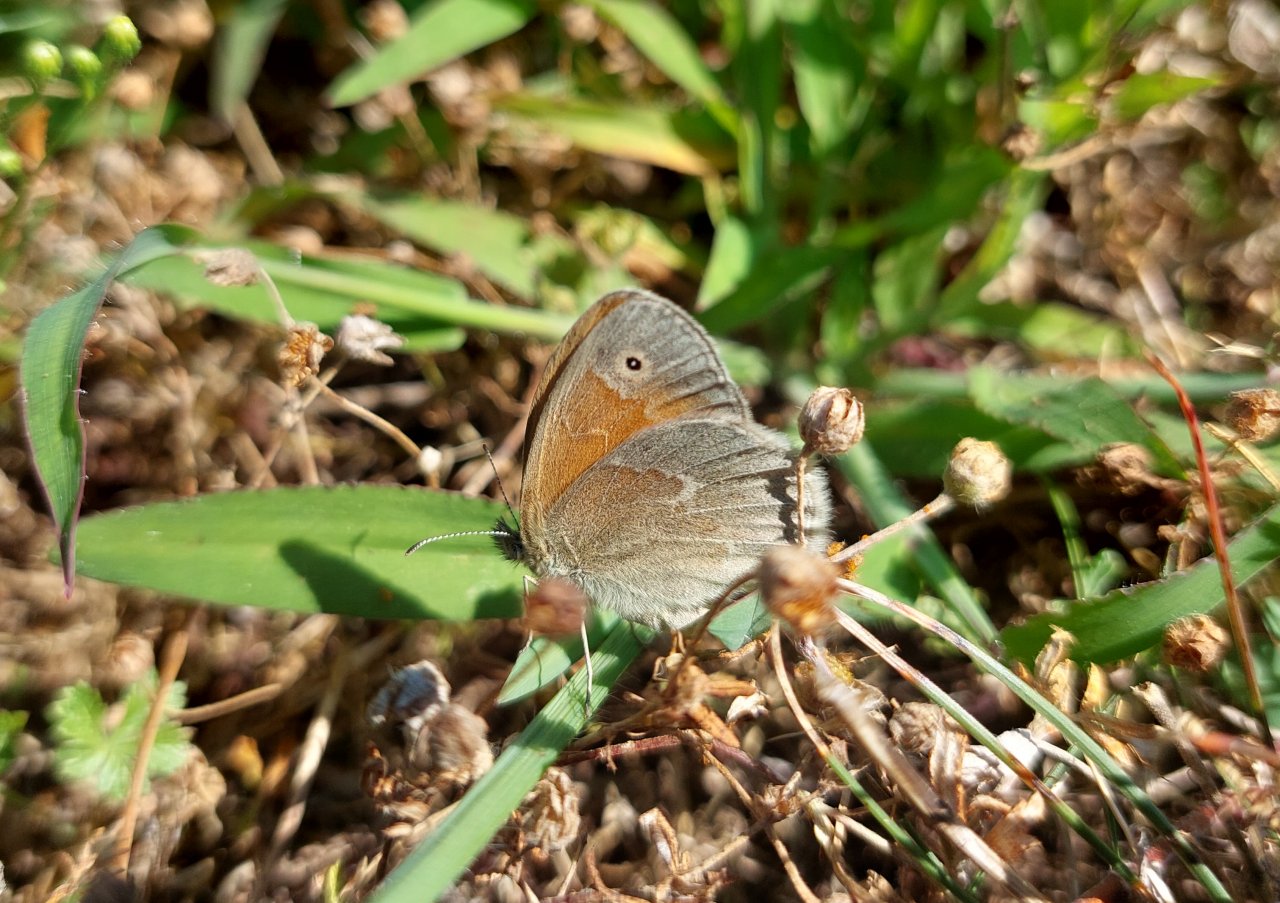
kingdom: Animalia
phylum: Arthropoda
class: Insecta
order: Lepidoptera
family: Nymphalidae
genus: Coenonympha
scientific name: Coenonympha tullia
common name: Large Heath
